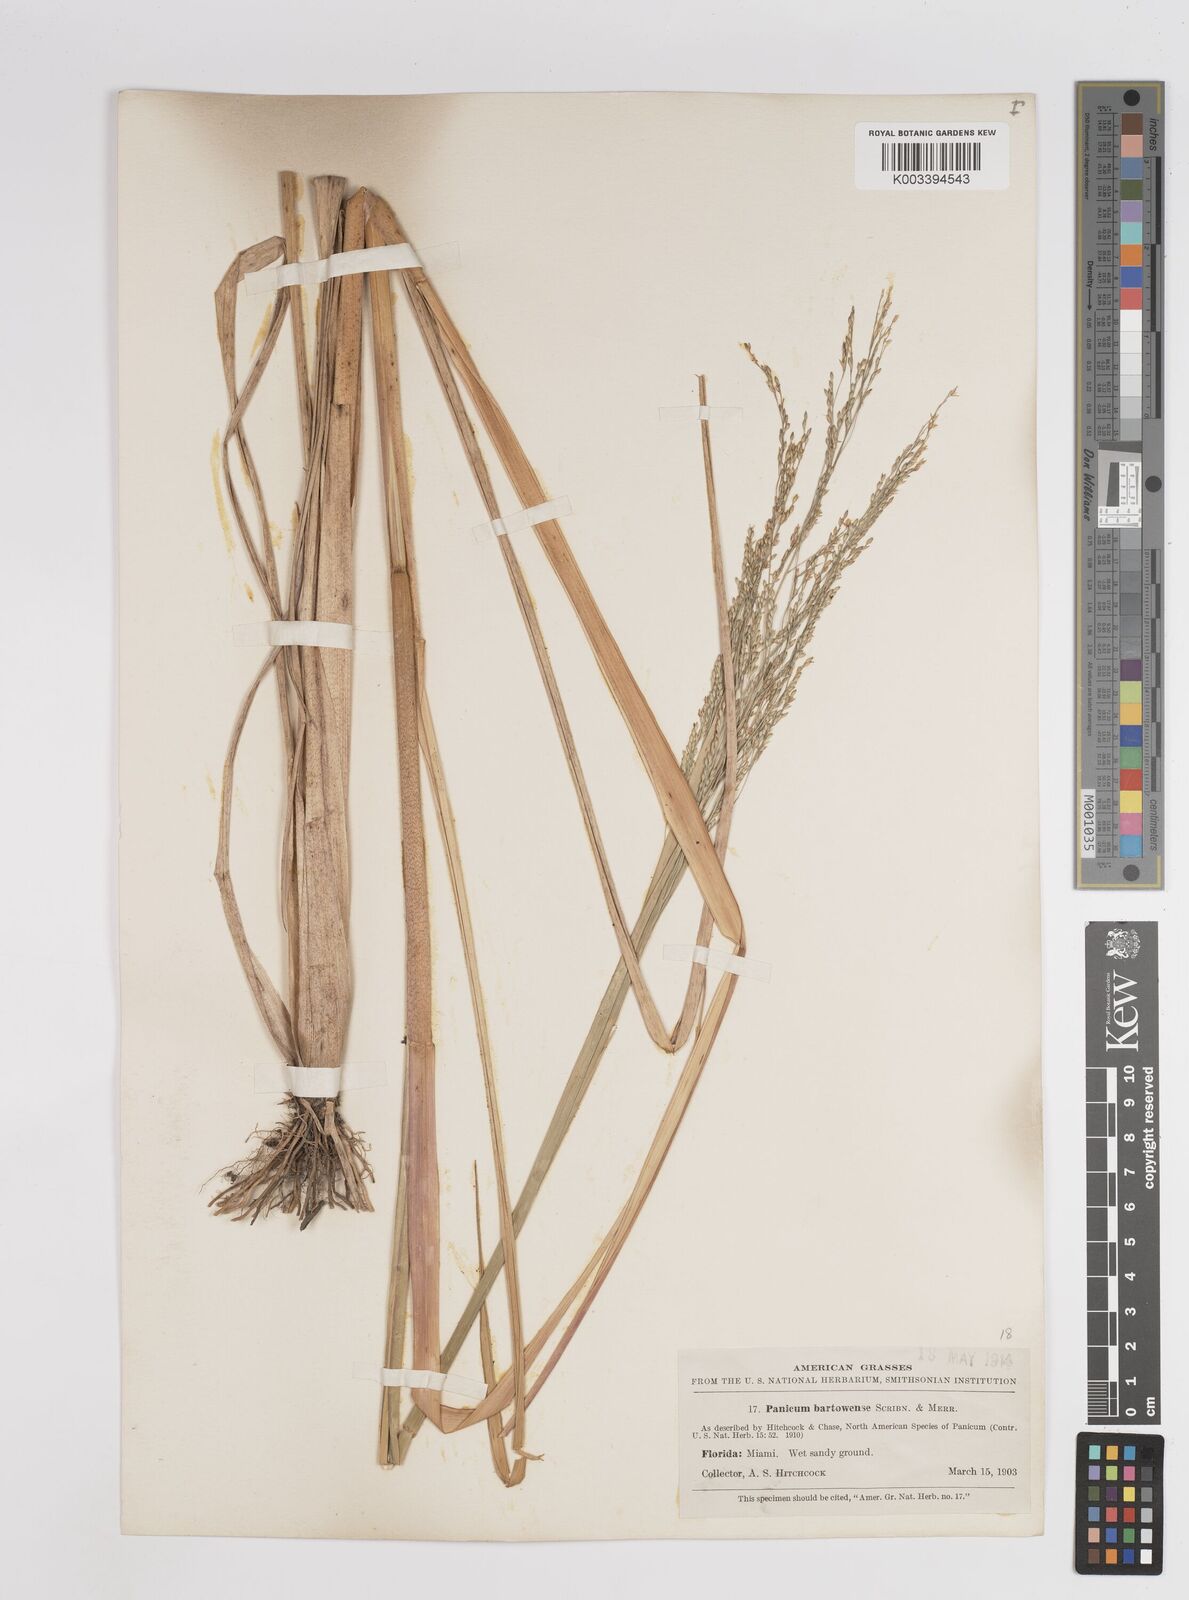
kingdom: Plantae
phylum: Tracheophyta
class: Liliopsida
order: Poales
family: Poaceae
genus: Panicum
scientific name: Panicum bartowense
